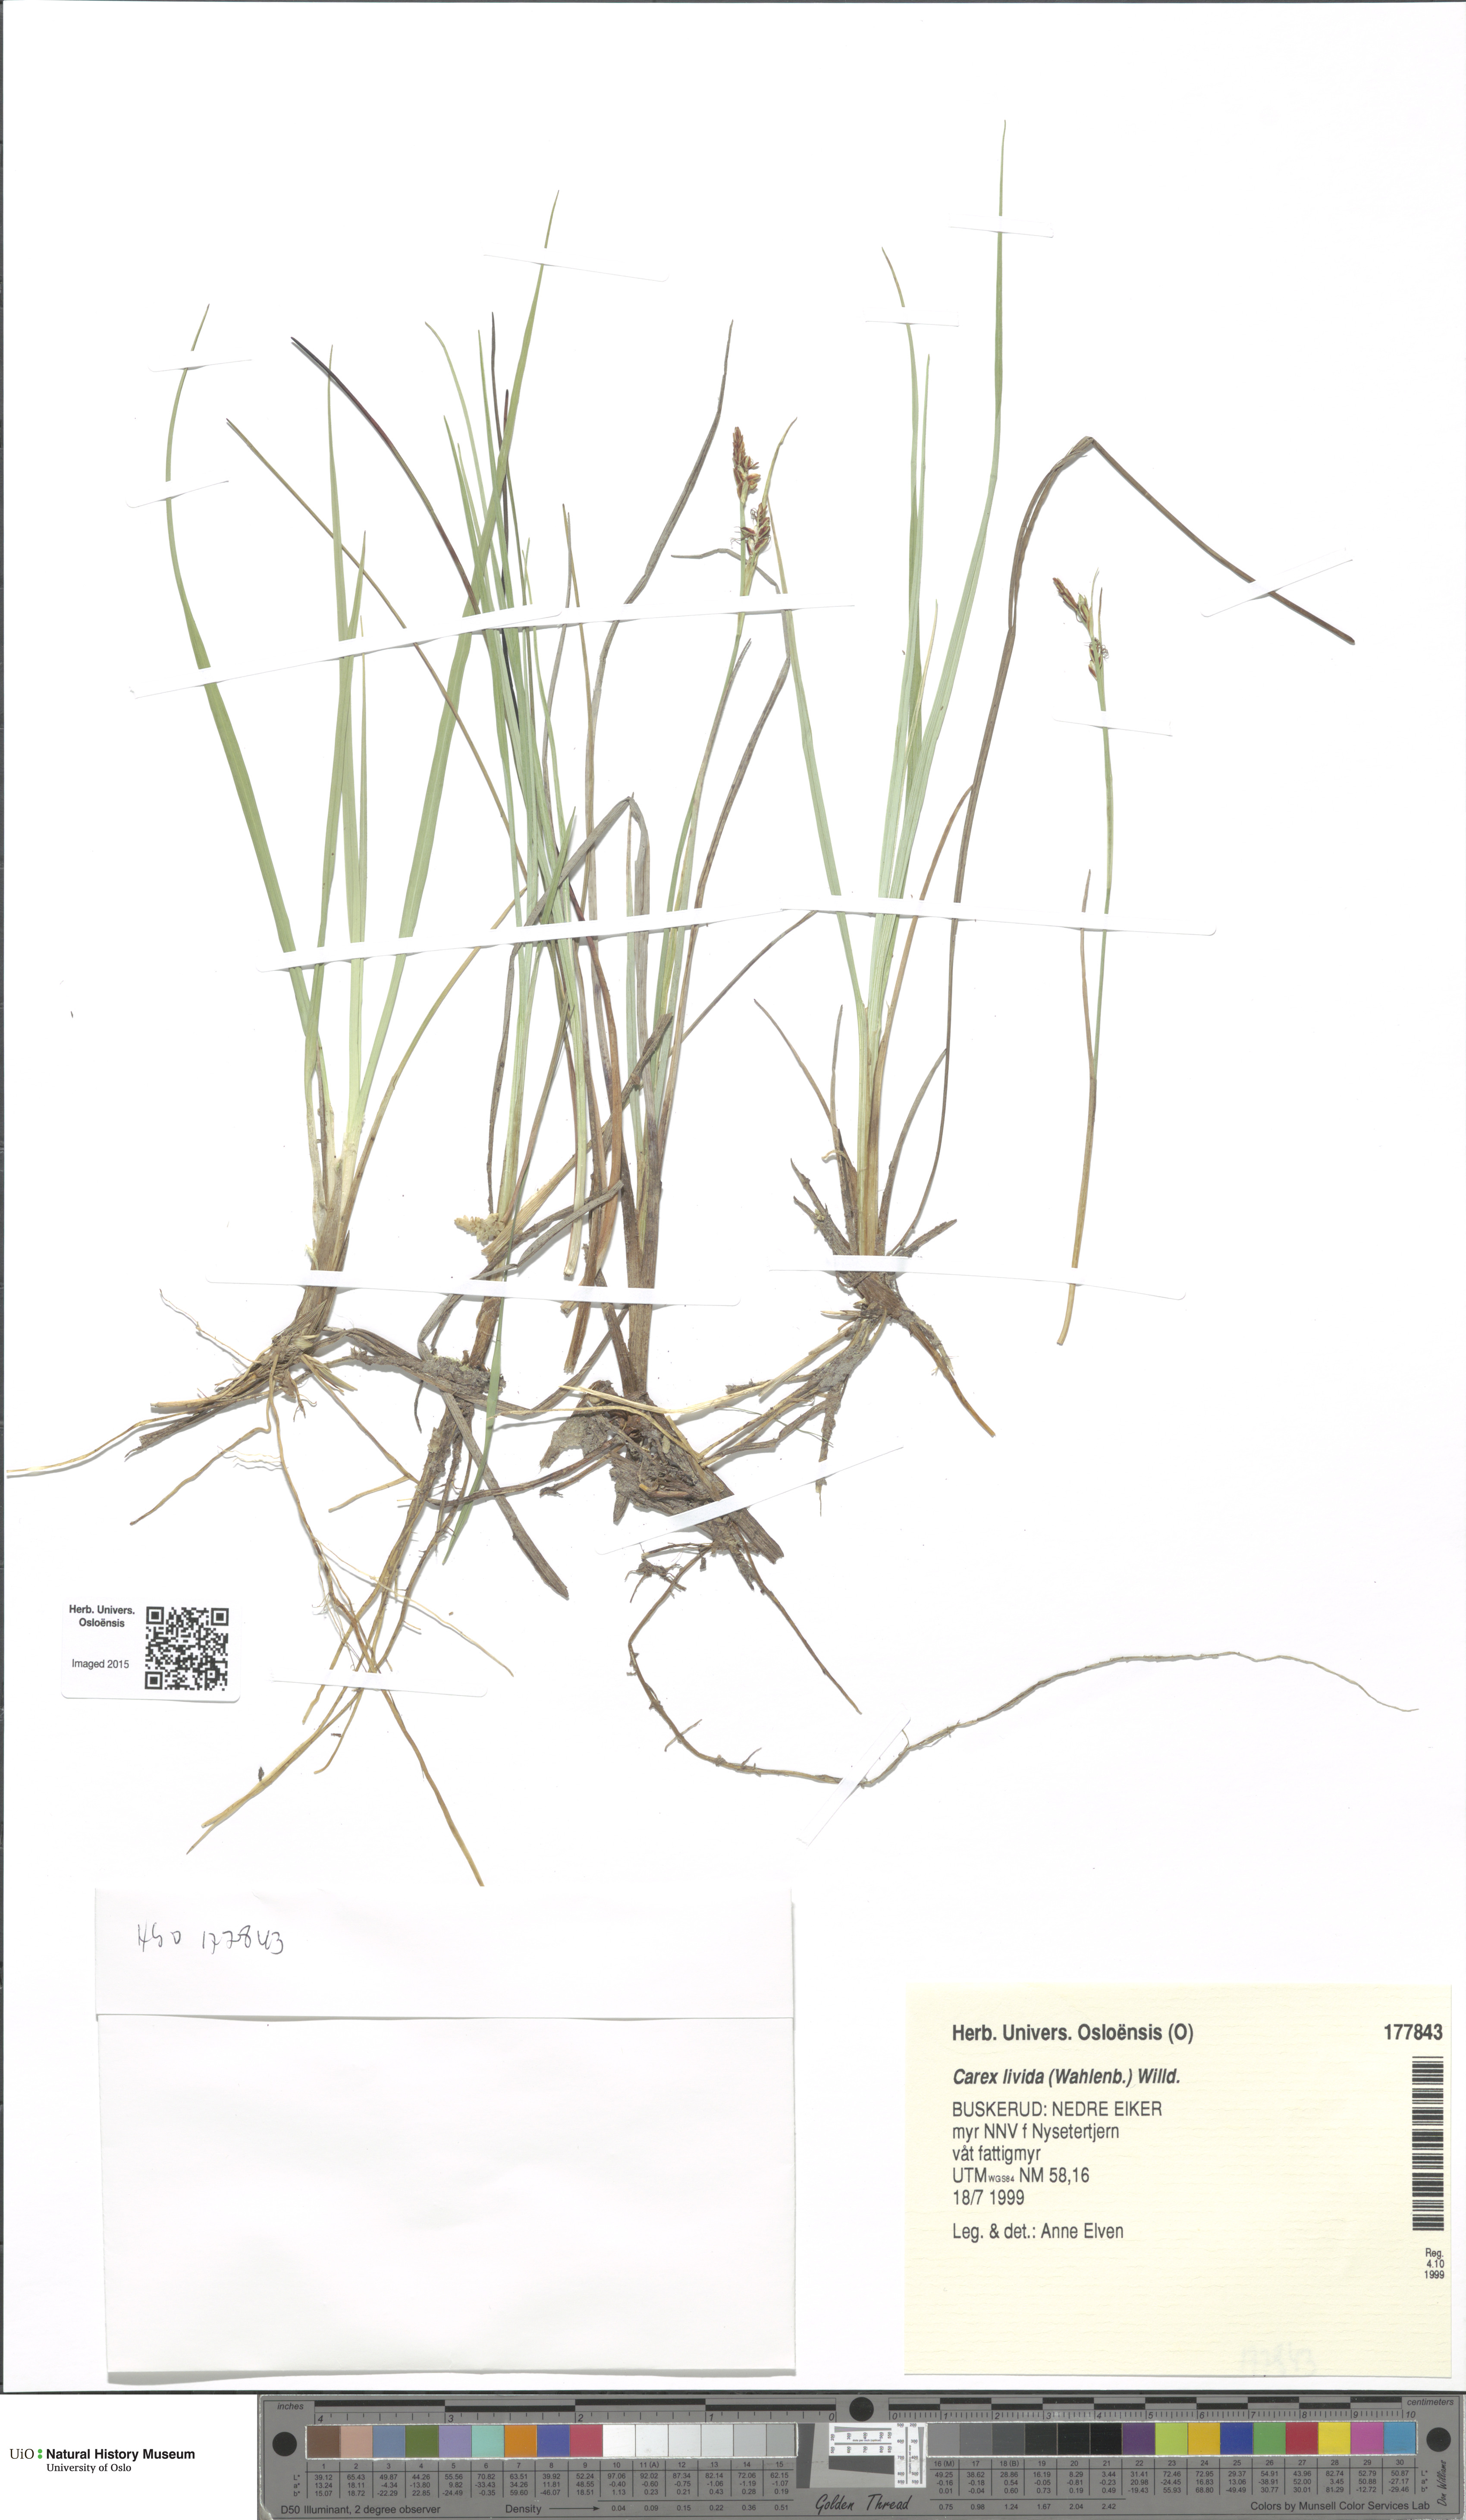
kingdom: Plantae
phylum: Tracheophyta
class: Liliopsida
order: Poales
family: Cyperaceae
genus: Carex
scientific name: Carex livida
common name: Livid sedge
